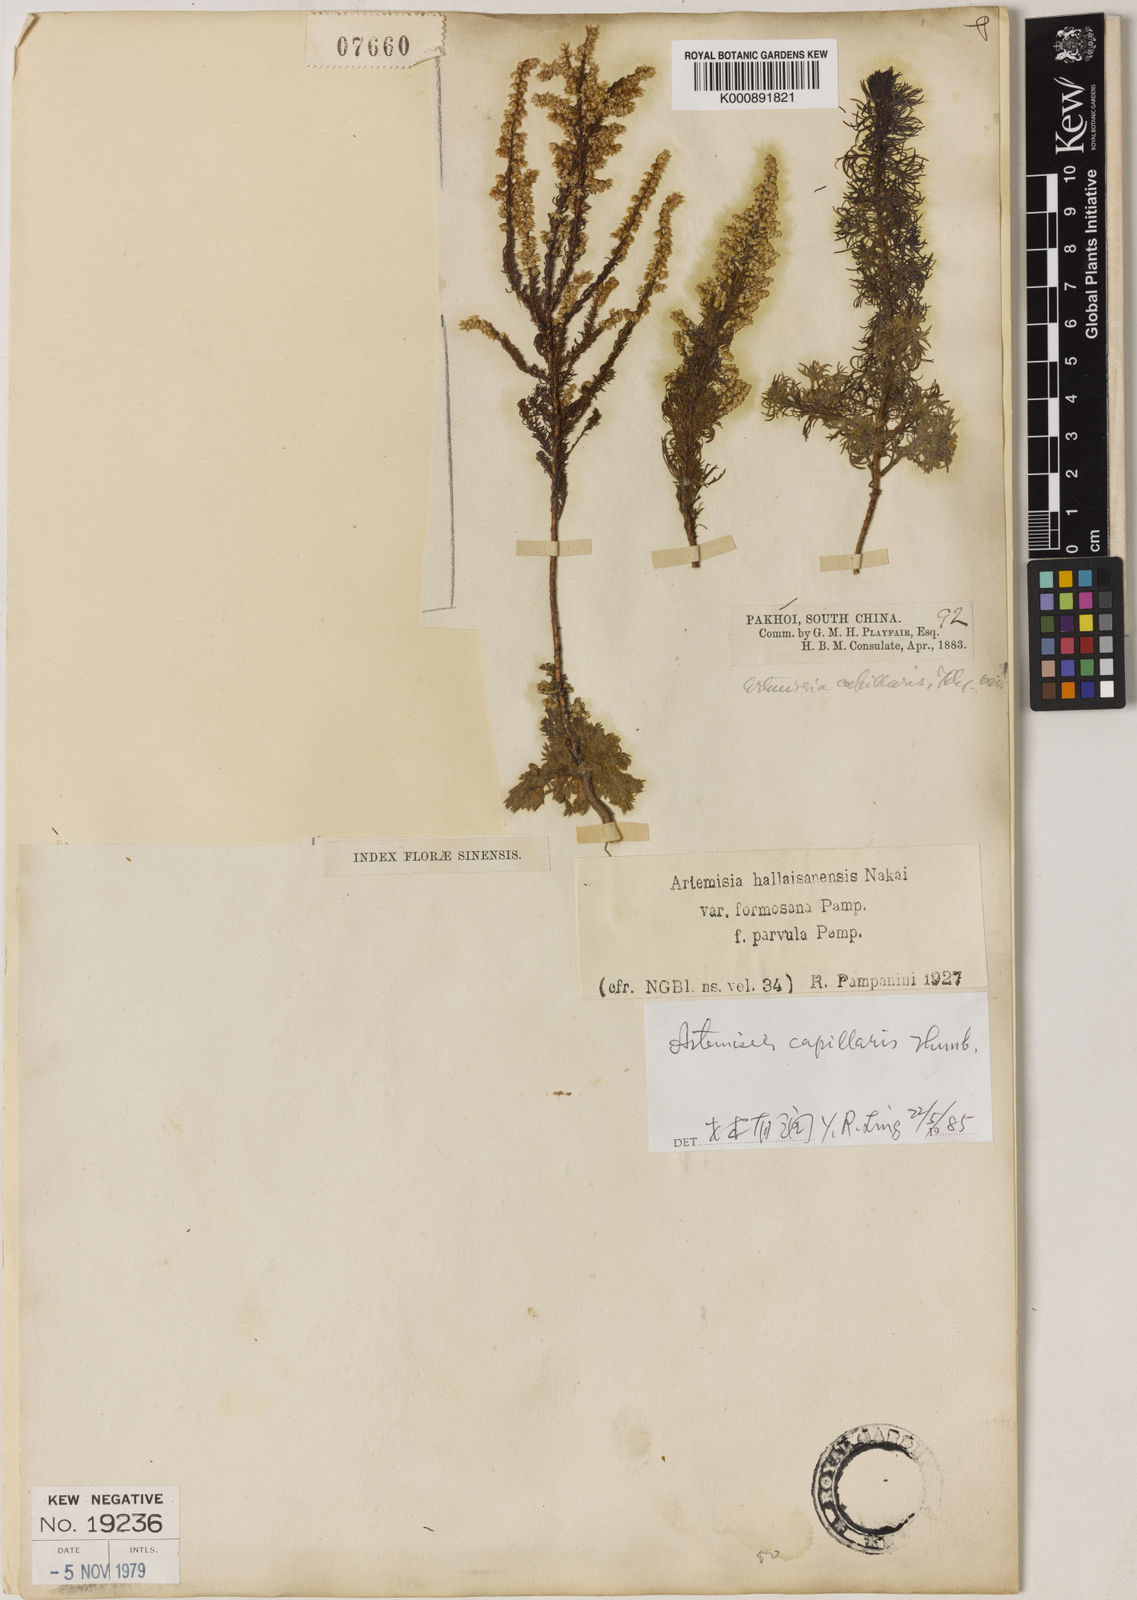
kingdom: Plantae
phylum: Tracheophyta
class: Magnoliopsida
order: Asterales
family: Asteraceae
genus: Artemisia
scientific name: Artemisia capillaris
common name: Yin-chen wormwood
